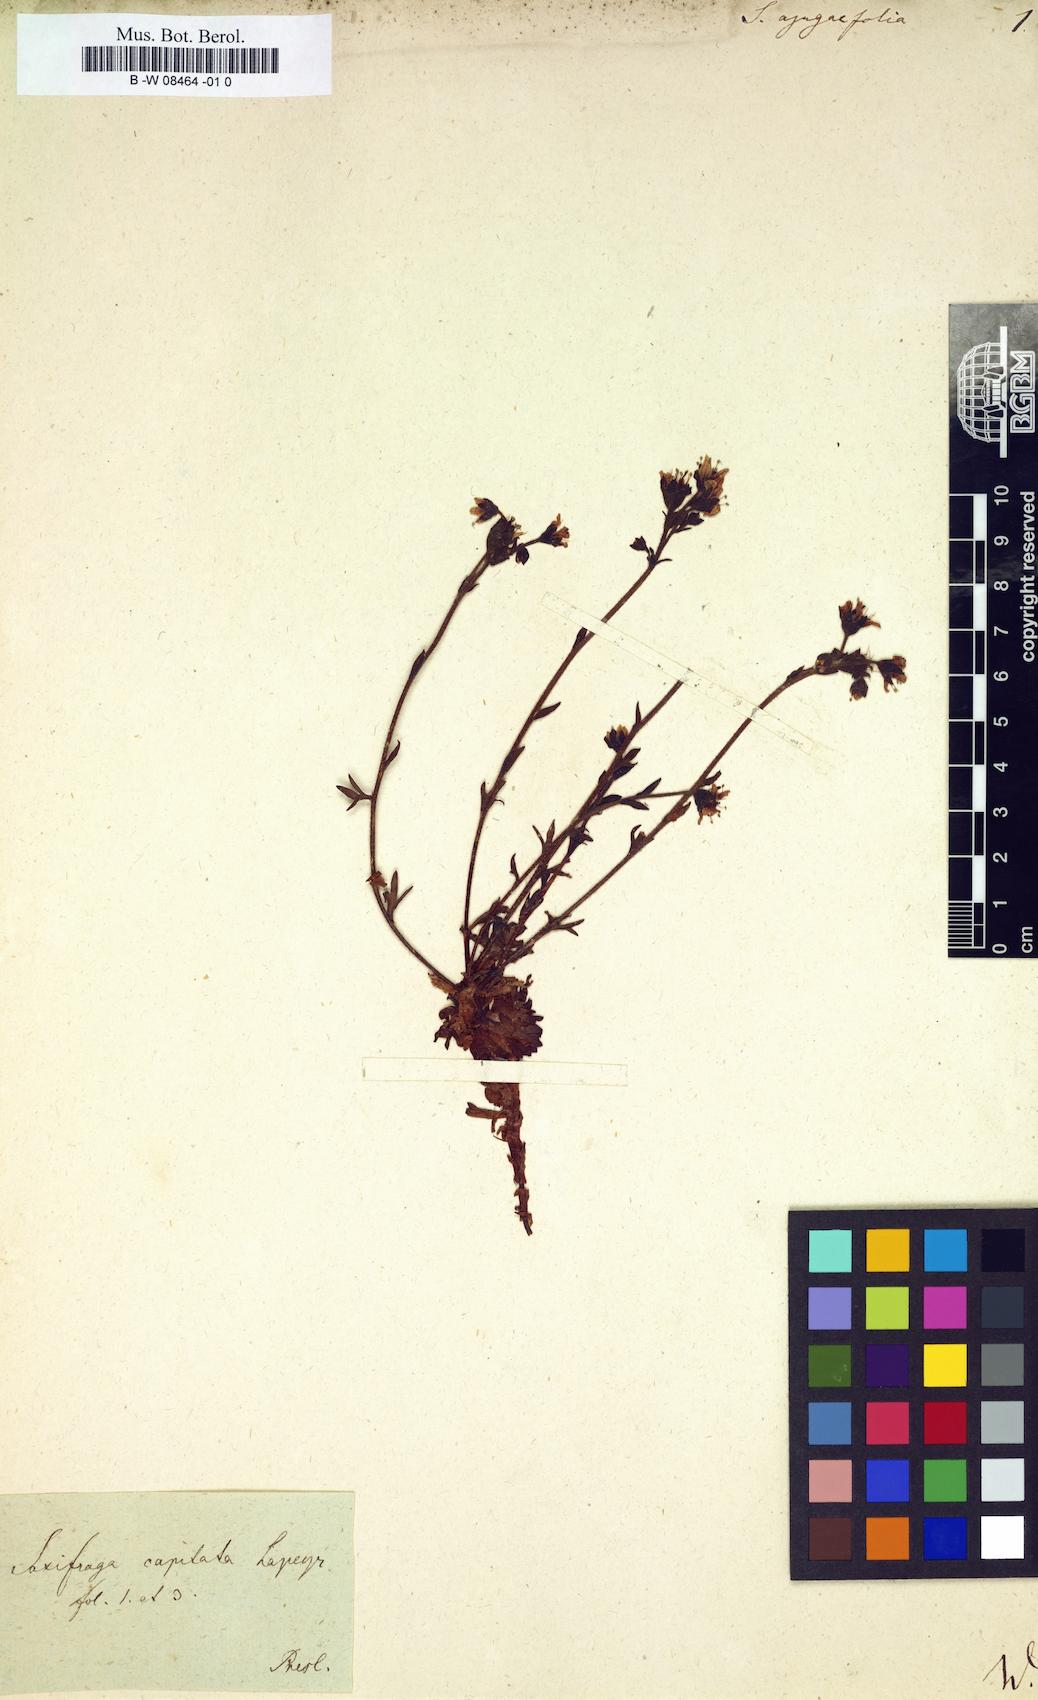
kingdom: Plantae
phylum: Tracheophyta
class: Magnoliopsida
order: Saxifragales
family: Saxifragaceae
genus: Saxifraga
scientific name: Saxifraga
